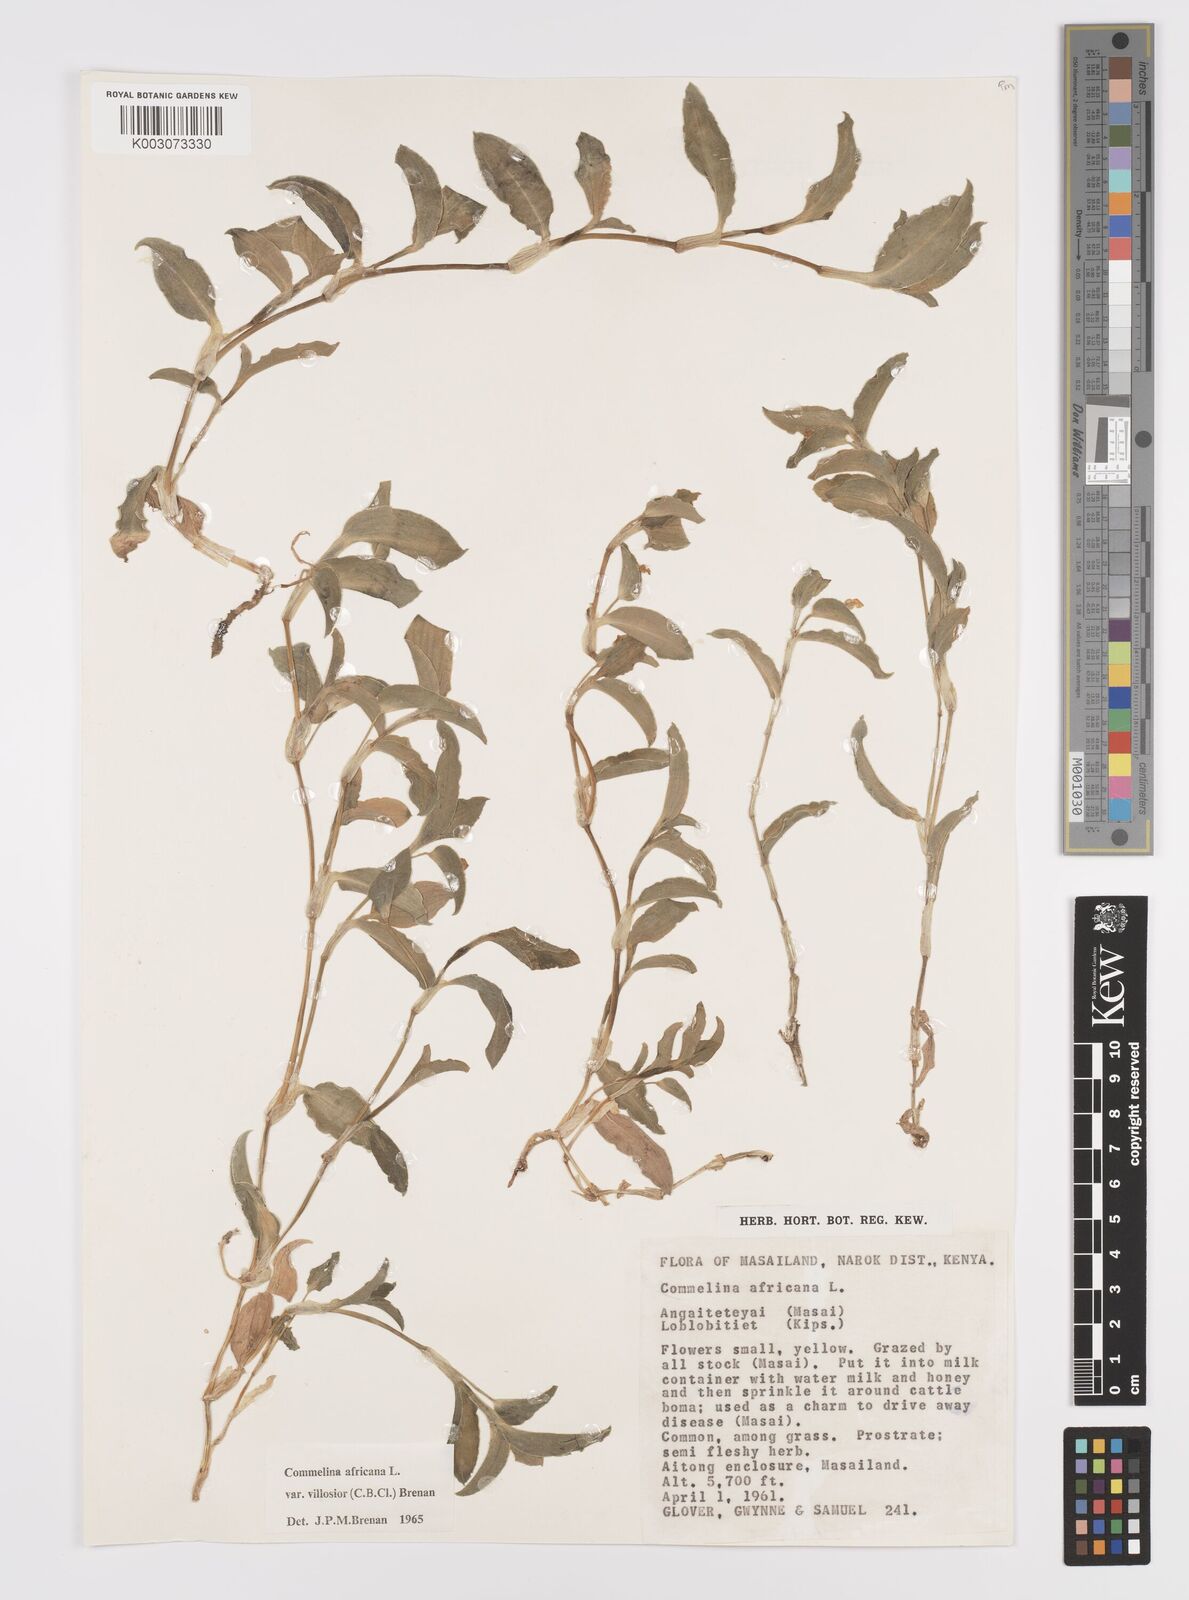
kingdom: Plantae
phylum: Tracheophyta
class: Liliopsida
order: Commelinales
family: Commelinaceae
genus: Commelina
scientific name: Commelina africana
